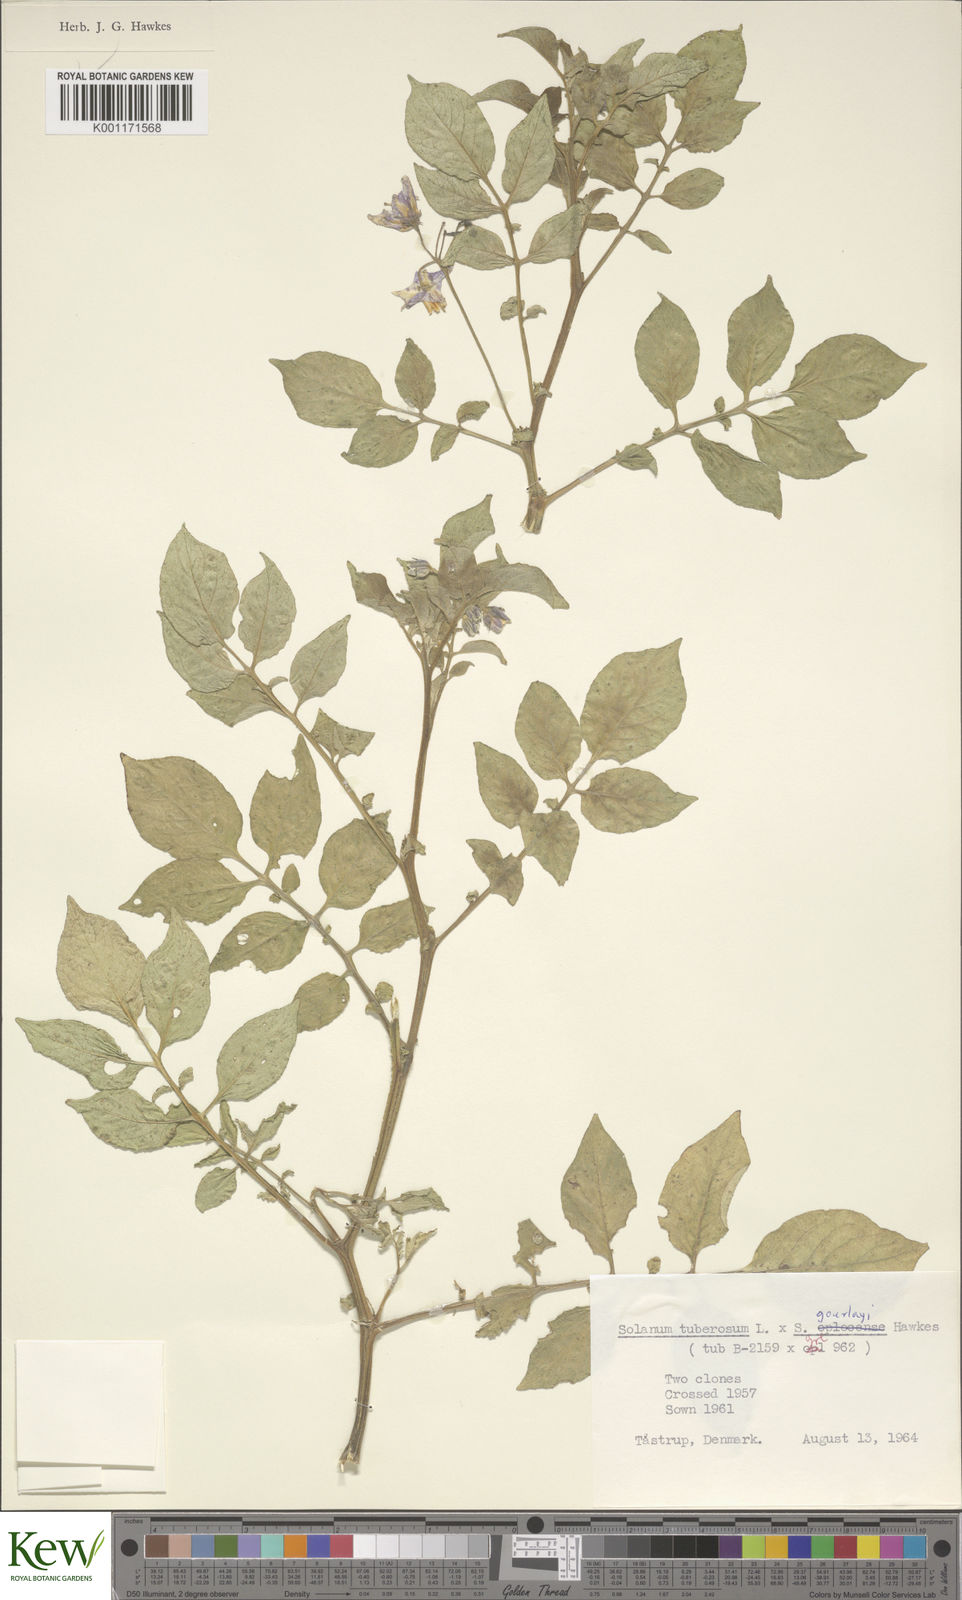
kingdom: Plantae
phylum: Tracheophyta
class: Magnoliopsida
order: Solanales
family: Solanaceae
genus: Solanum
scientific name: Solanum
